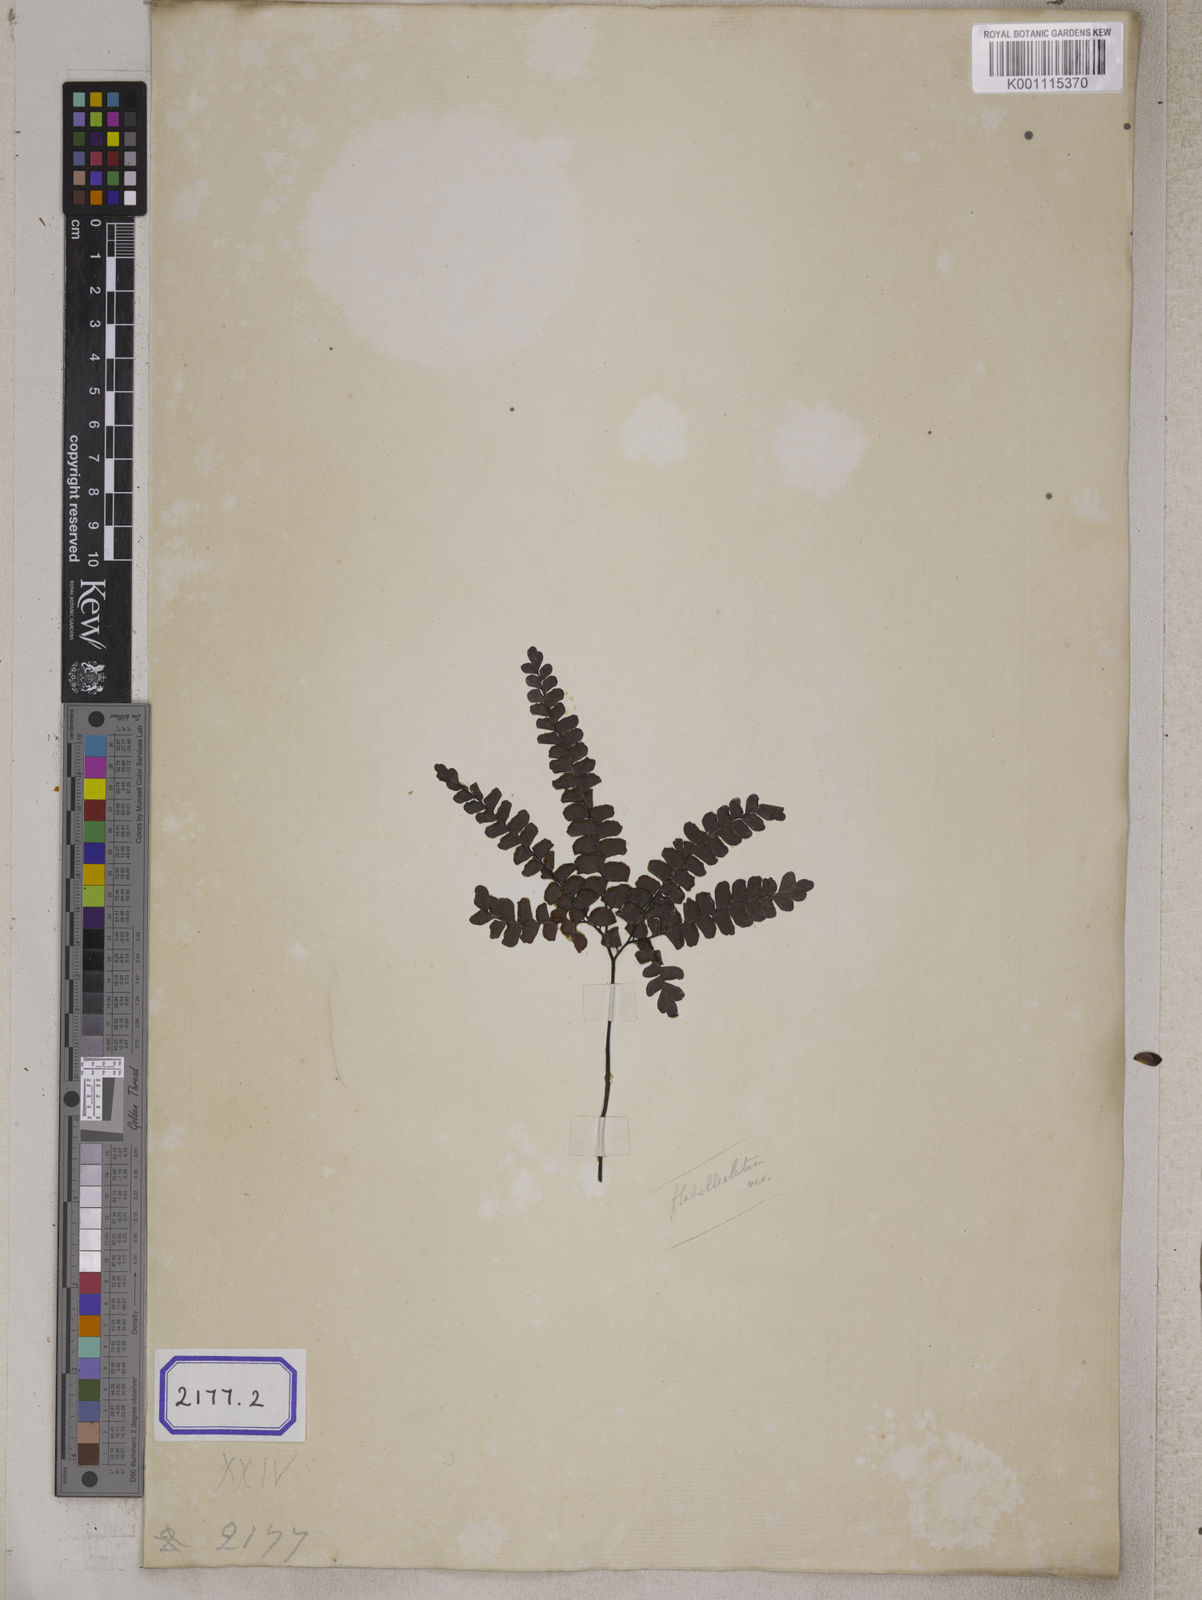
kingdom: Plantae
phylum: Tracheophyta
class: Polypodiopsida
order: Polypodiales
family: Pteridaceae
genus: Adiantum
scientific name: Adiantum flabellulatum
